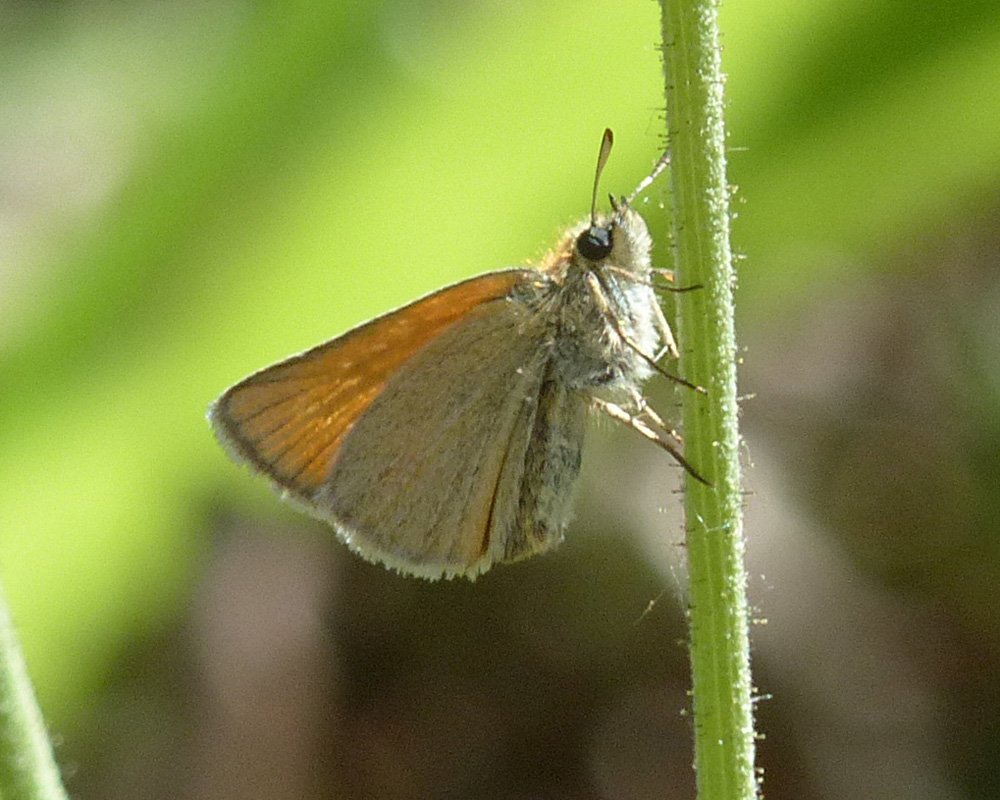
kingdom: Animalia
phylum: Arthropoda
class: Insecta
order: Lepidoptera
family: Hesperiidae
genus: Thymelicus
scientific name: Thymelicus lineola
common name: European Skipper
